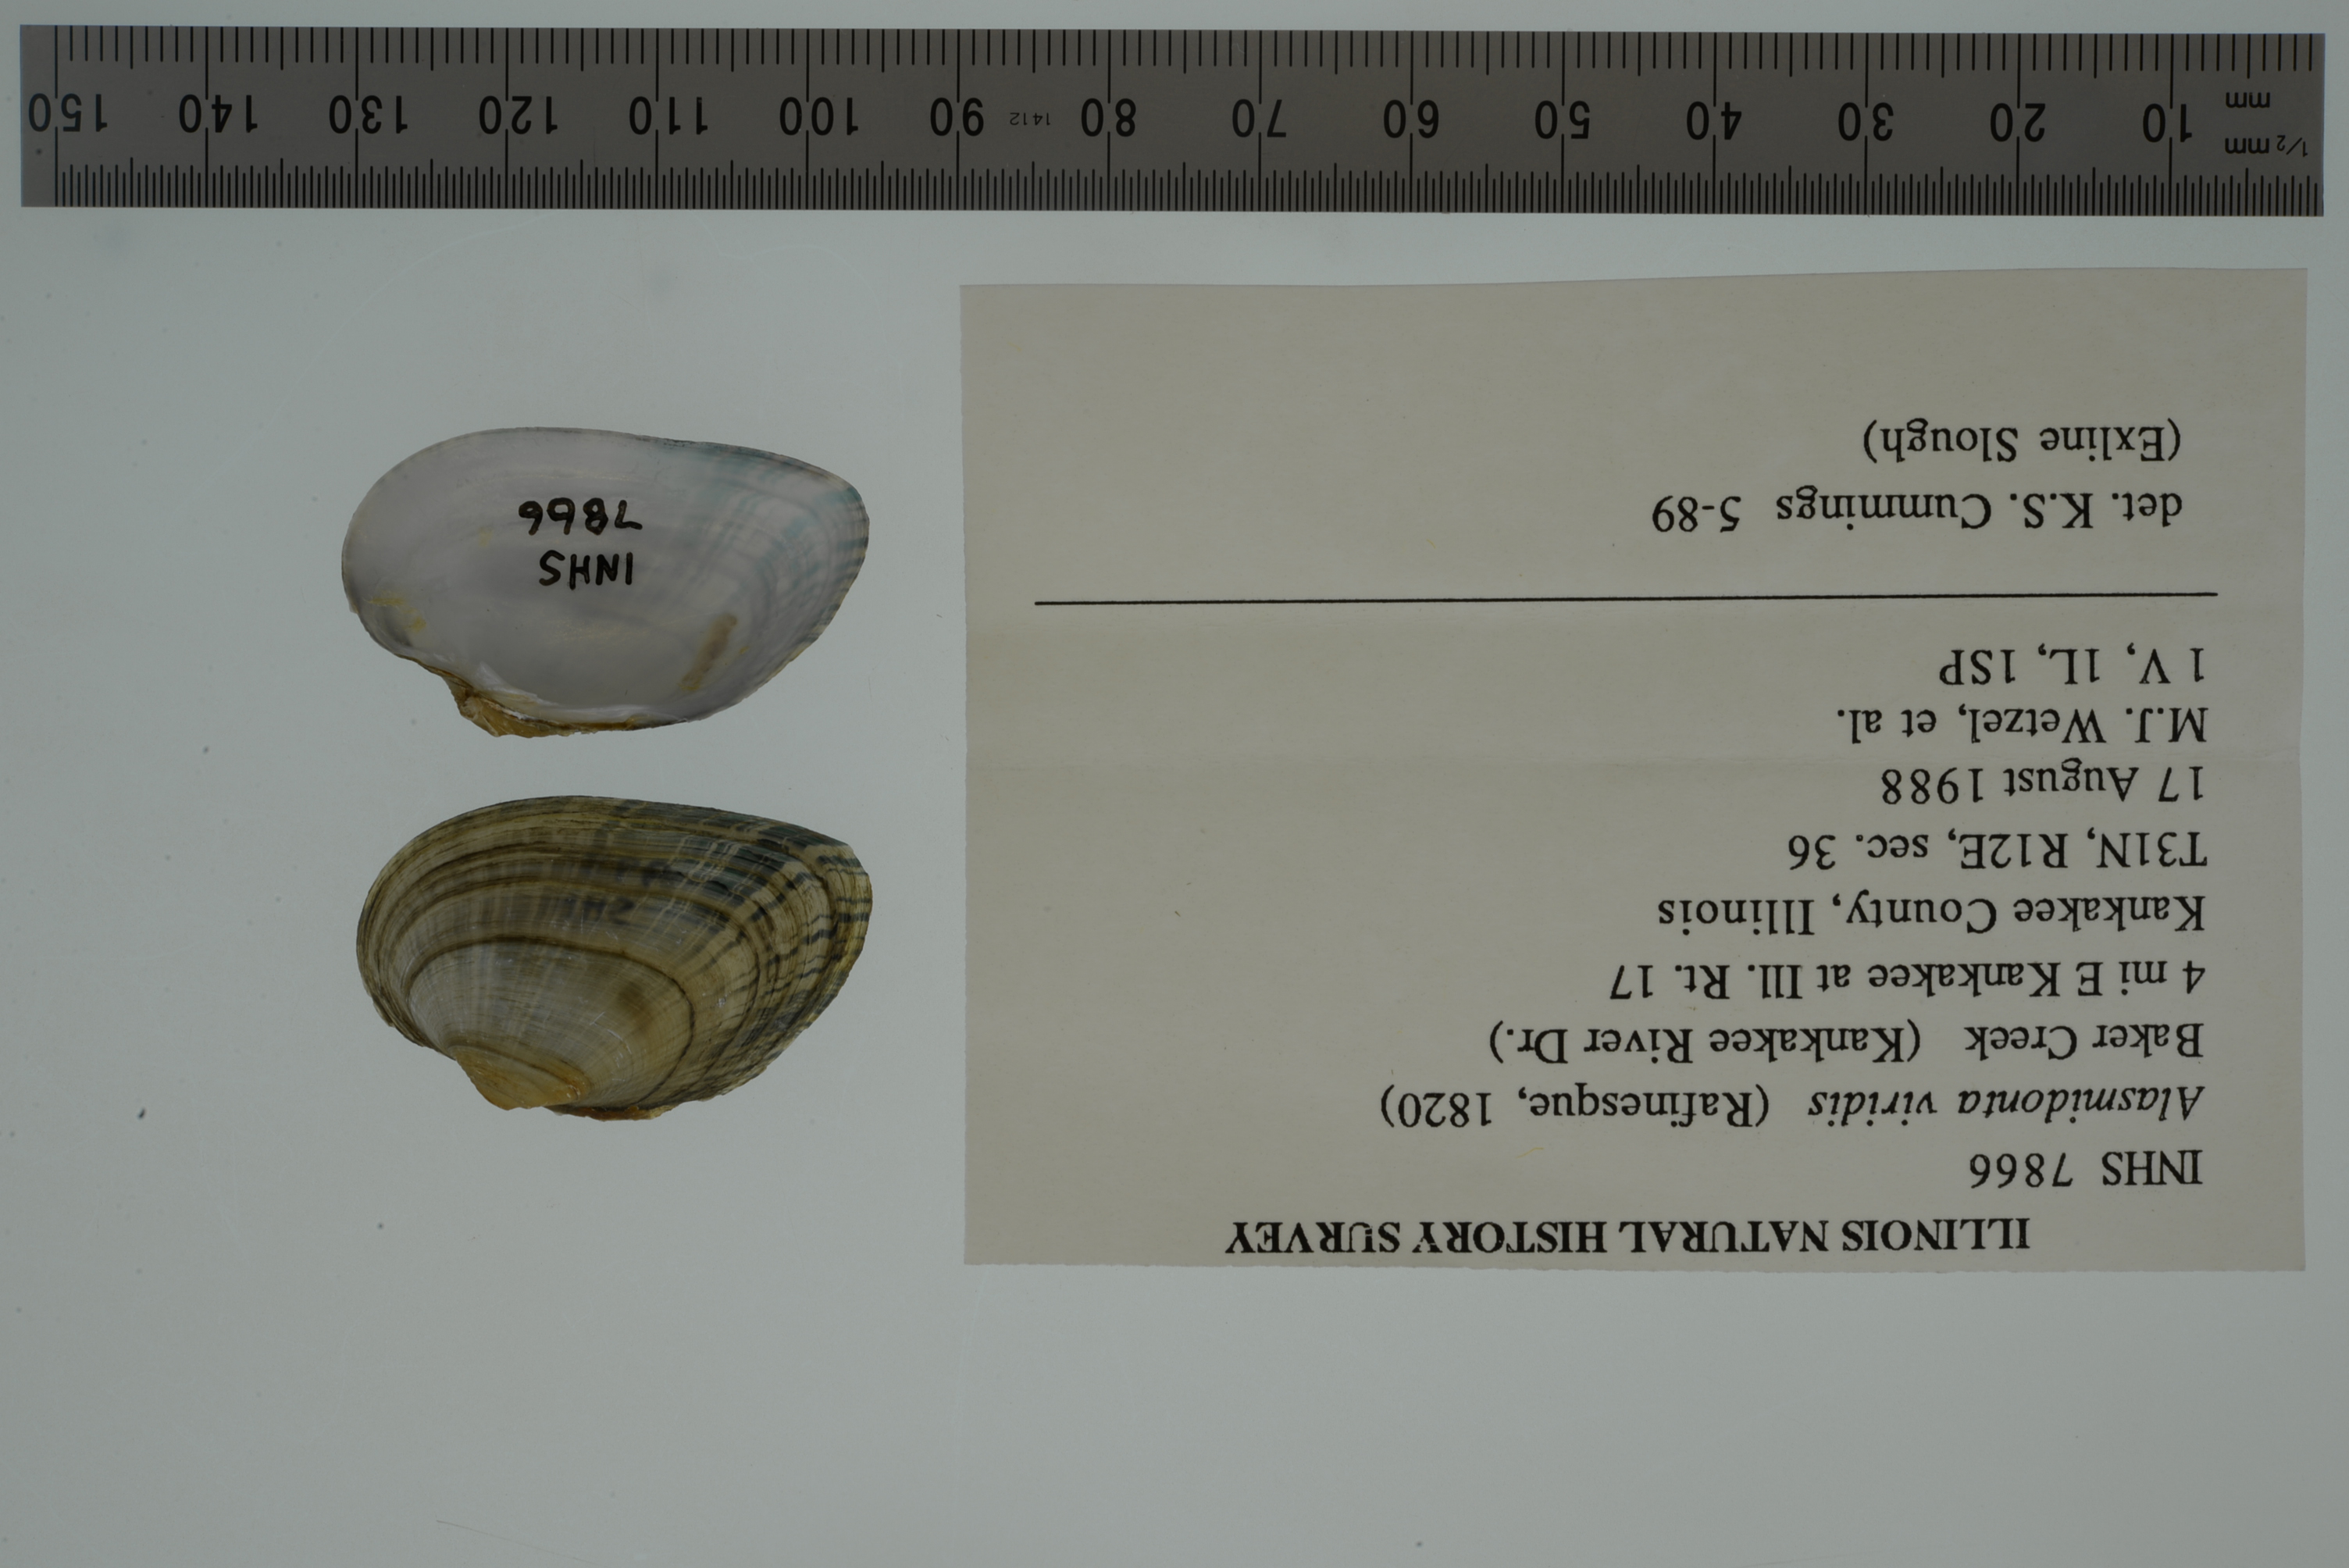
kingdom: Animalia
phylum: Mollusca
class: Bivalvia
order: Unionida
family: Unionidae
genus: Alasmidonta
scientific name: Alasmidonta viridis
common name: Slippershell mussel
